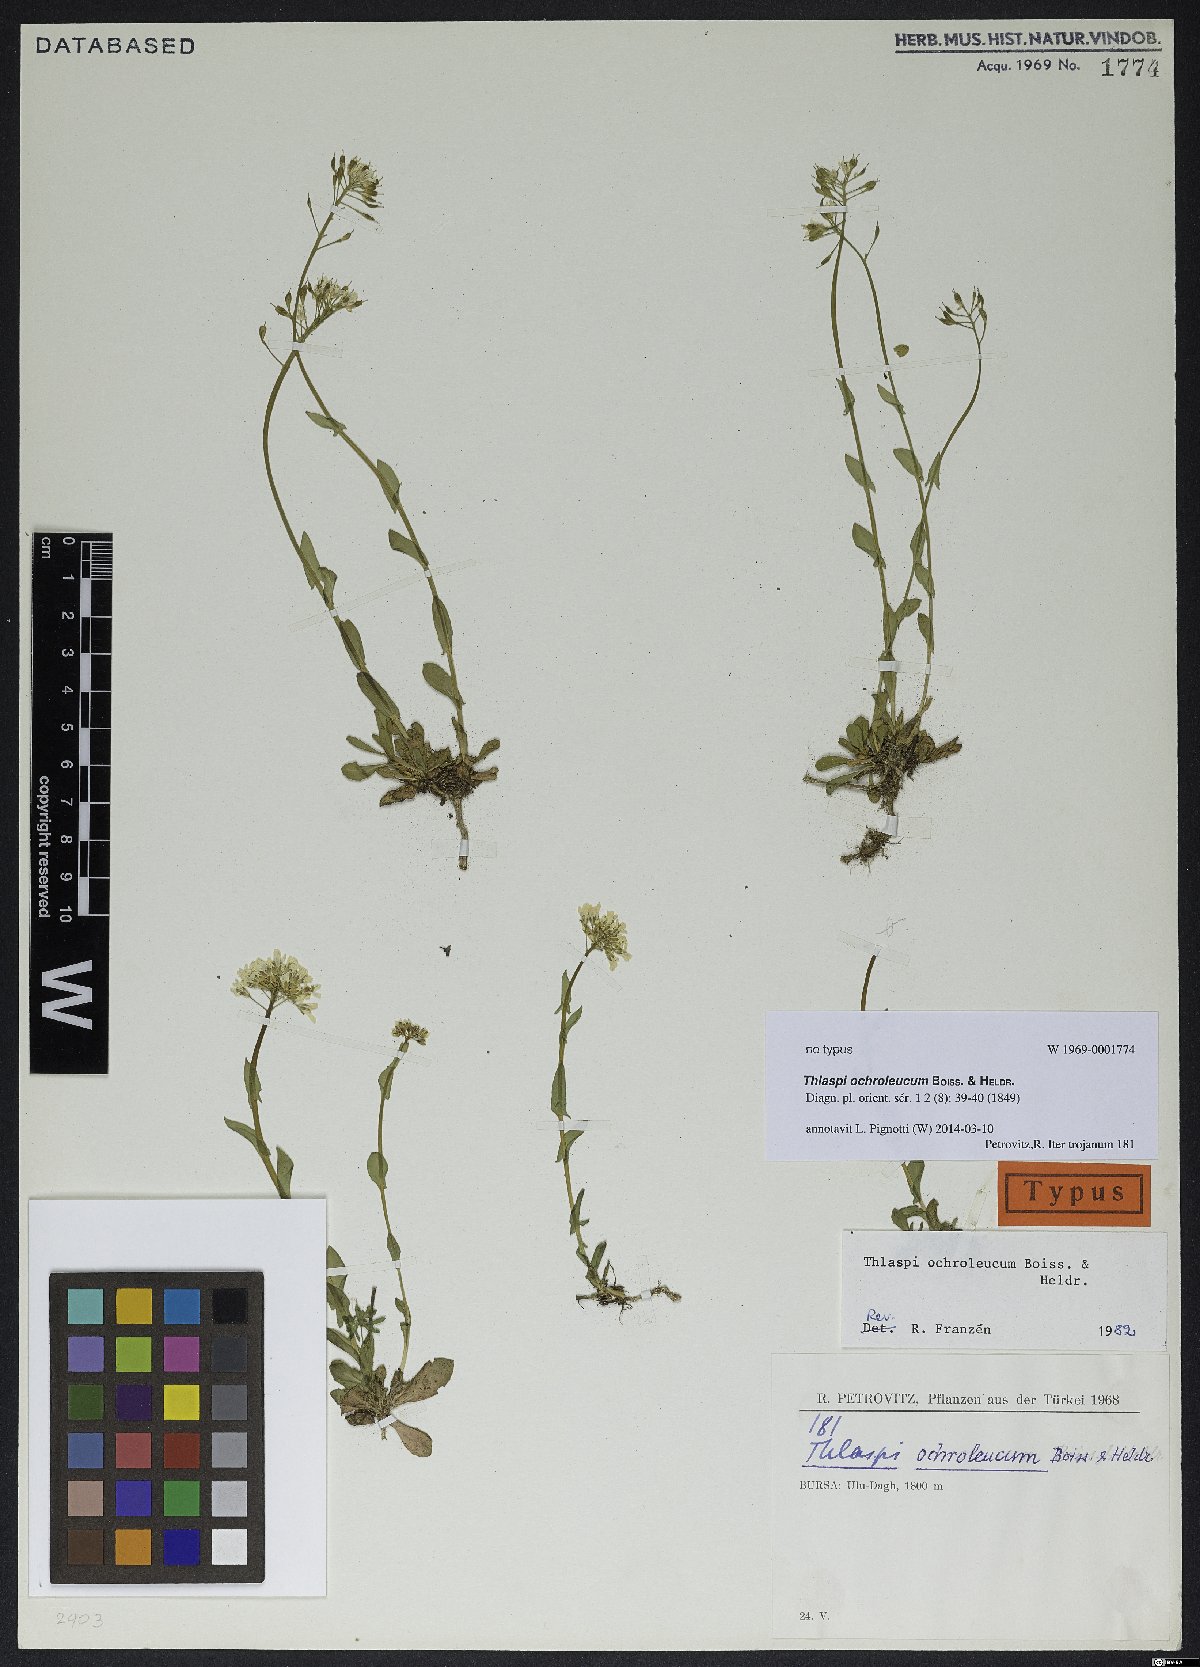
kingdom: Plantae
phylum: Tracheophyta
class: Magnoliopsida
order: Brassicales
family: Brassicaceae
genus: Noccaea
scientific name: Noccaea ochroleuca
